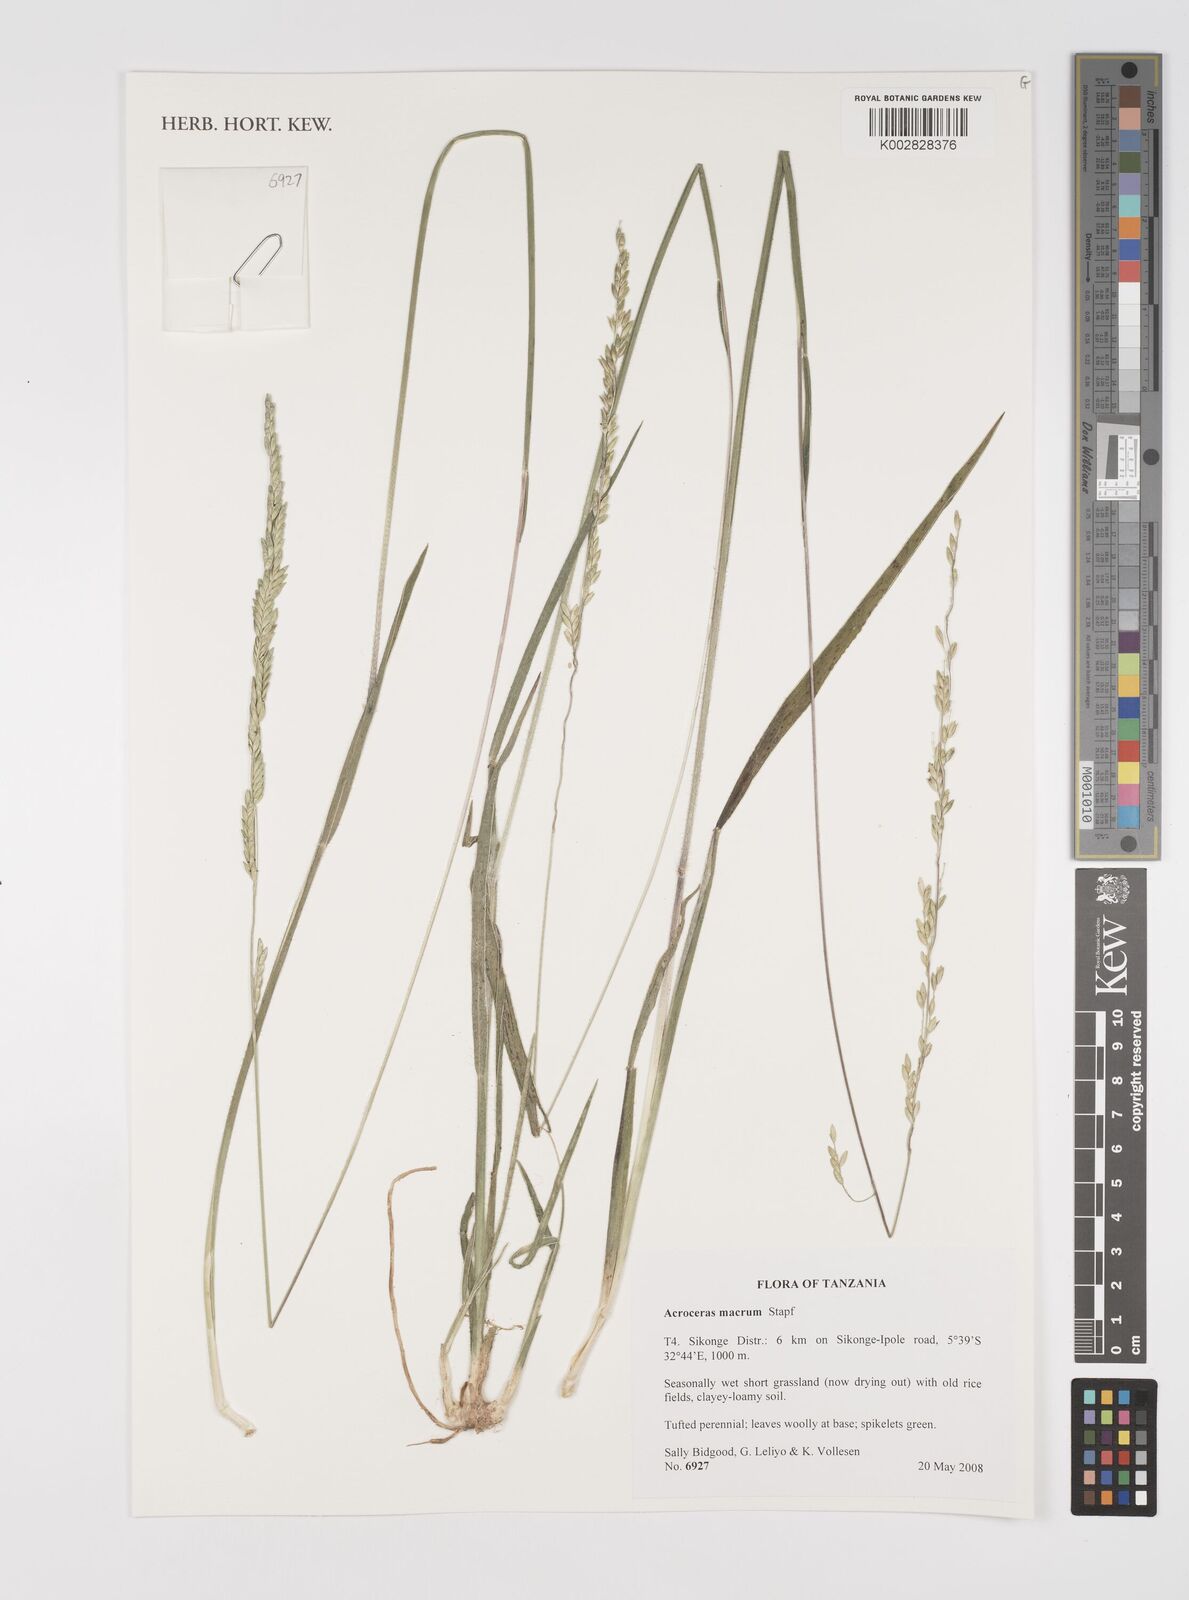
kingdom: Plantae
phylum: Tracheophyta
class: Liliopsida
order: Poales
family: Poaceae
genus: Acroceras
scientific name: Acroceras macrum
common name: Nyl grass
